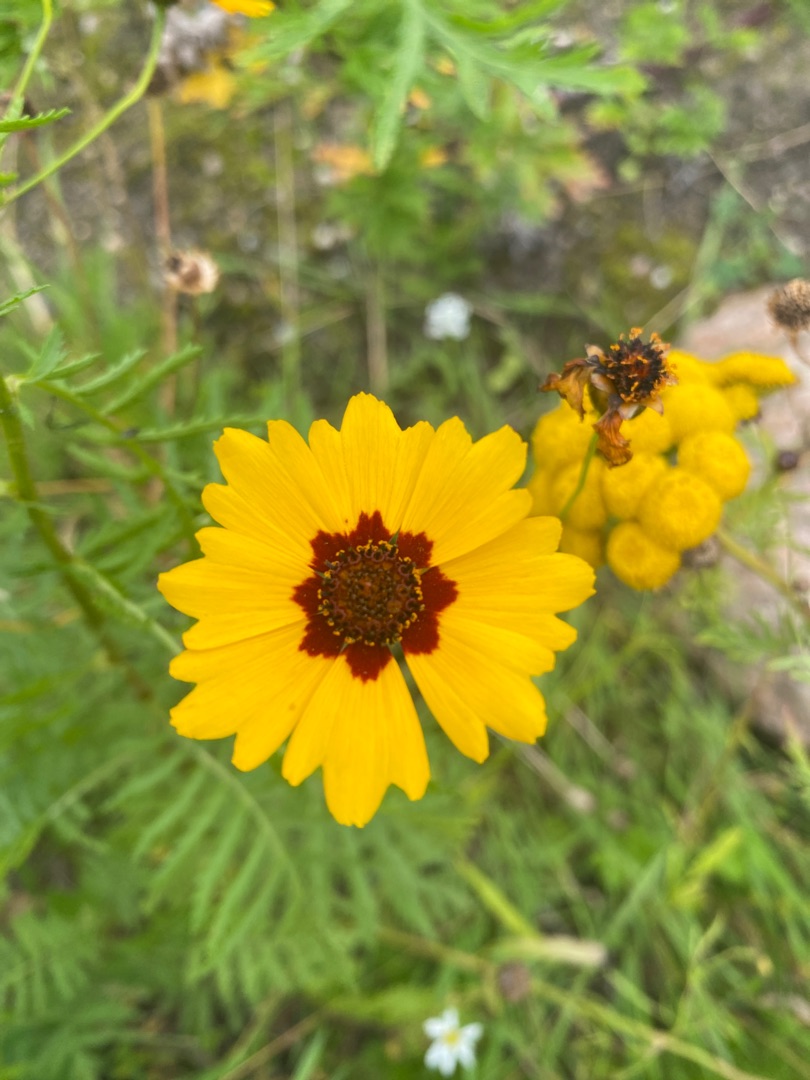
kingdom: Plantae
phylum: Tracheophyta
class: Magnoliopsida
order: Asterales
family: Asteraceae
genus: Coreopsis
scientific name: Coreopsis tinctoria
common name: Skønhedsøje
